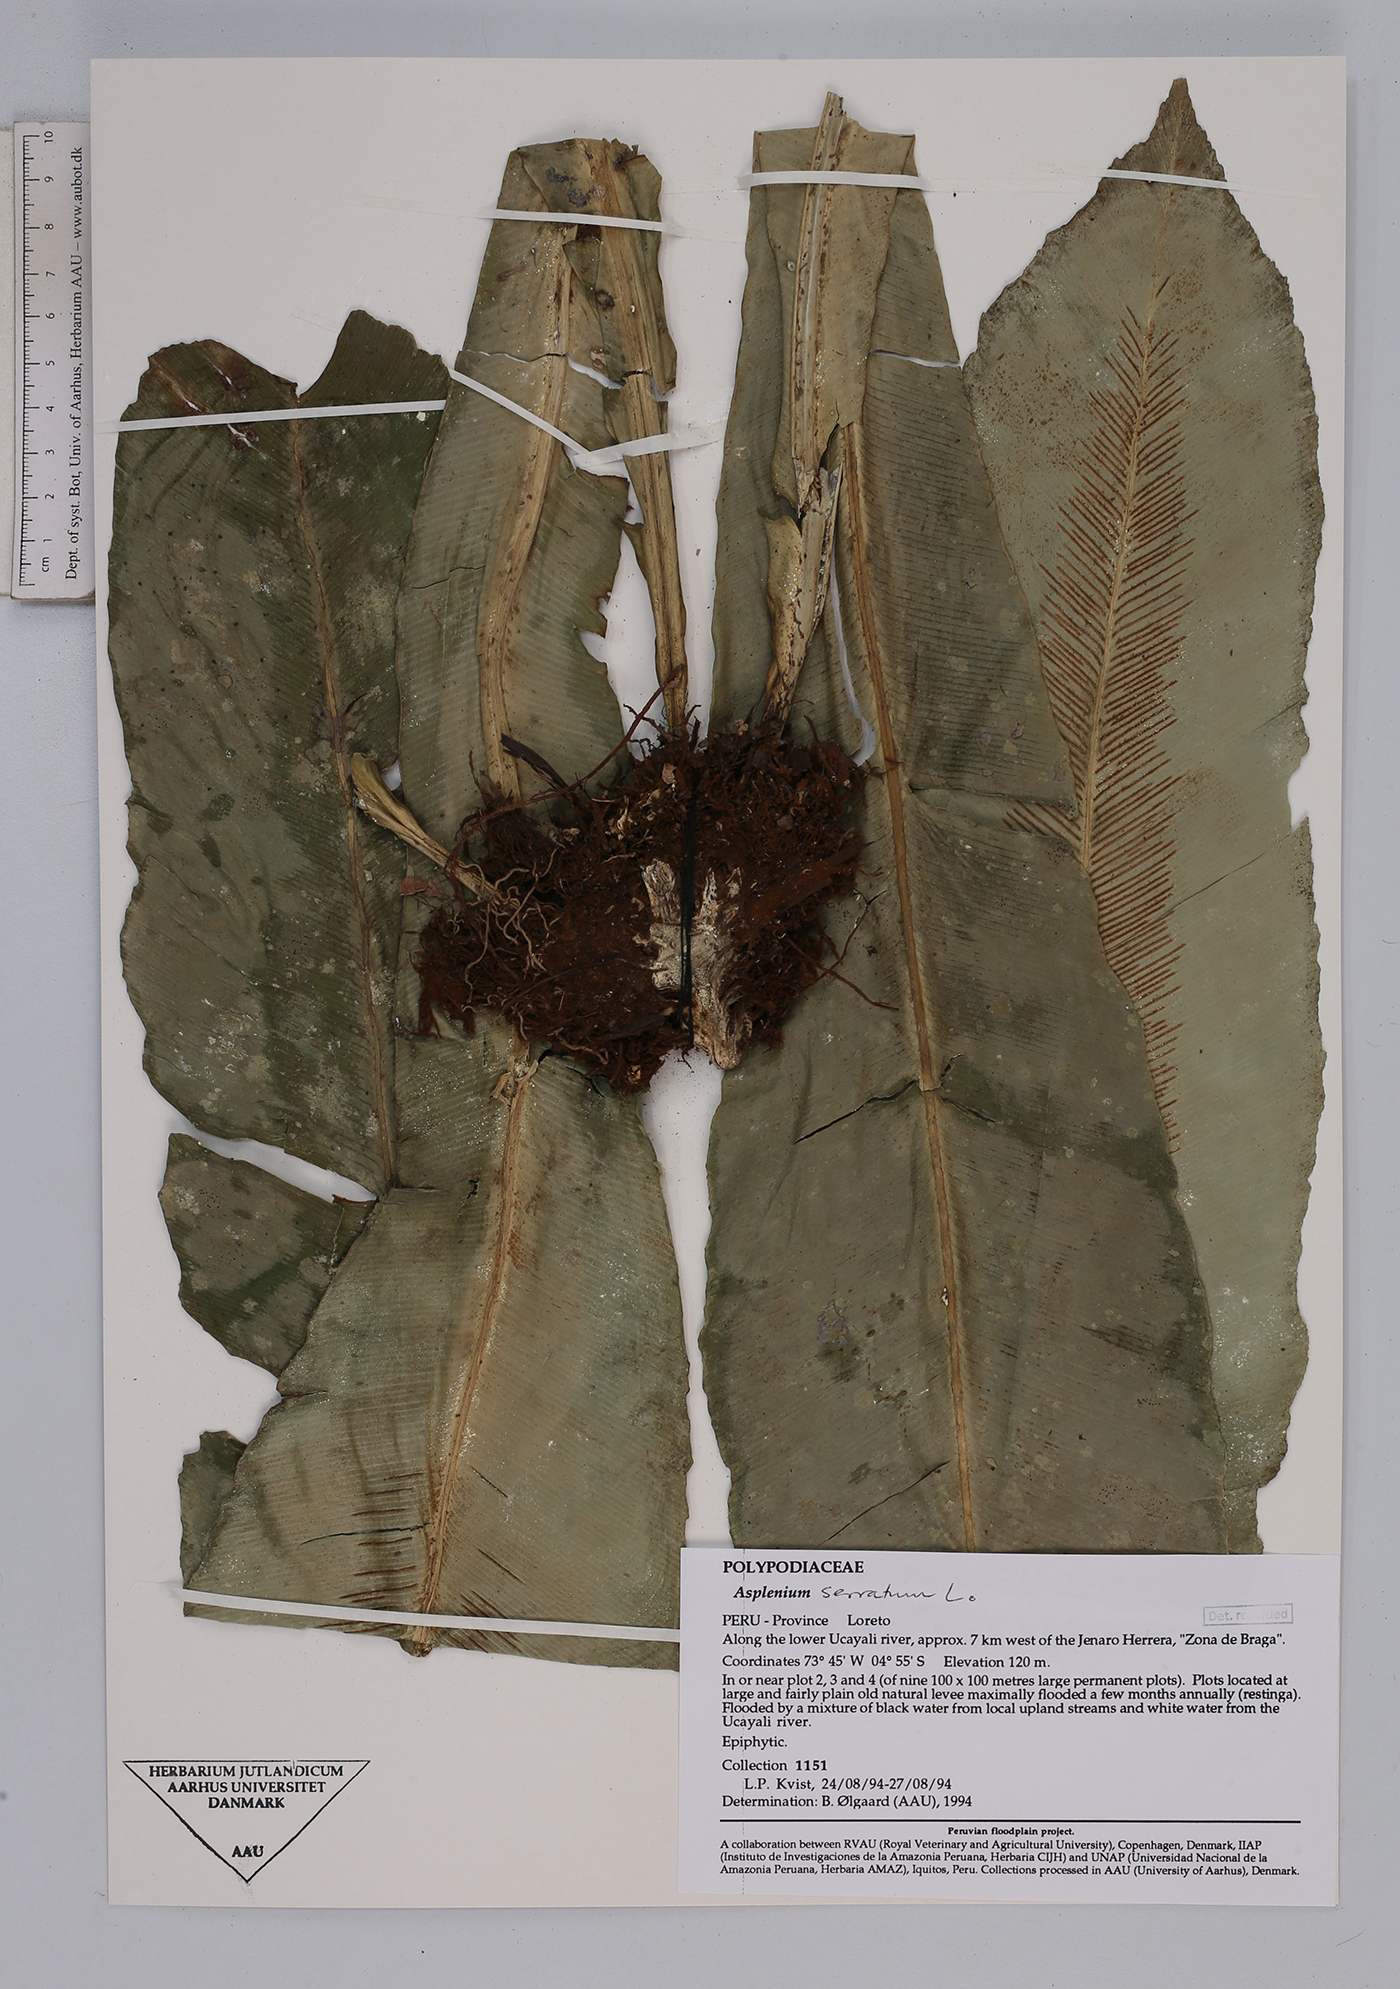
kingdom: Plantae
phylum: Tracheophyta
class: Polypodiopsida
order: Polypodiales
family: Aspleniaceae
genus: Asplenium
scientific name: Asplenium serratum
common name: Wild birdnest fern
